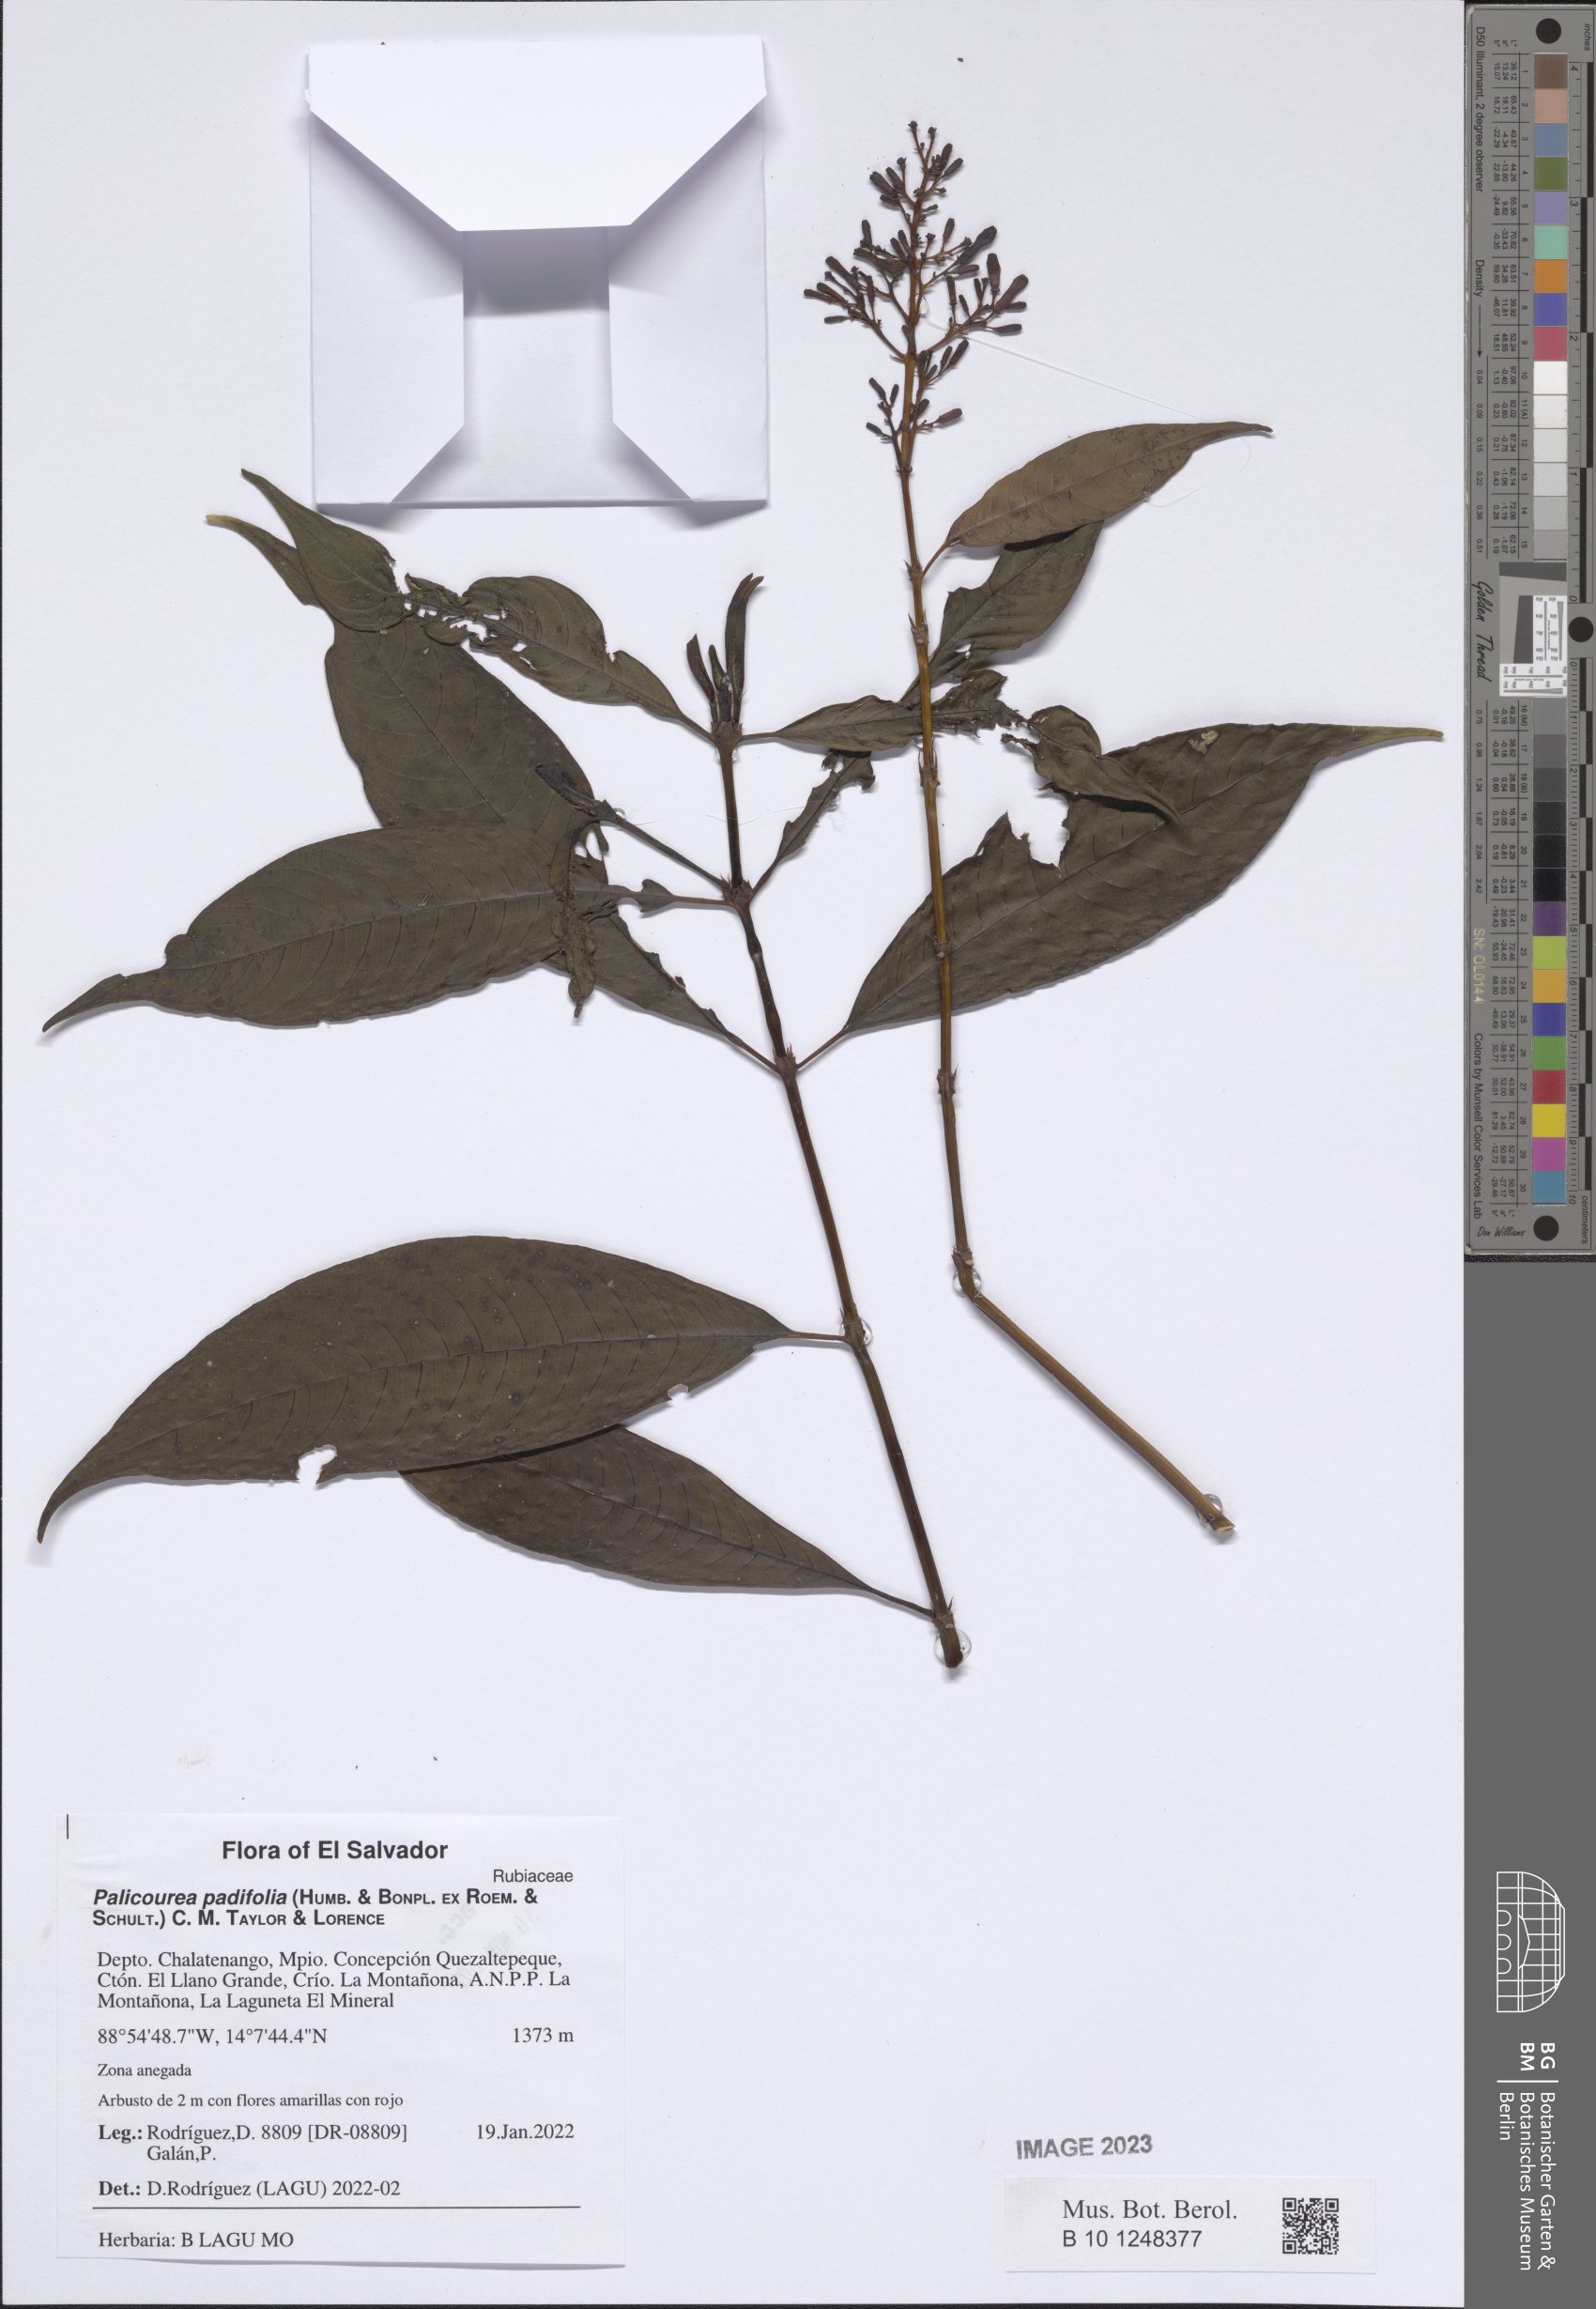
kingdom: Plantae
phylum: Tracheophyta
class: Magnoliopsida
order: Gentianales
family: Rubiaceae
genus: Palicourea
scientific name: Palicourea padifolia
